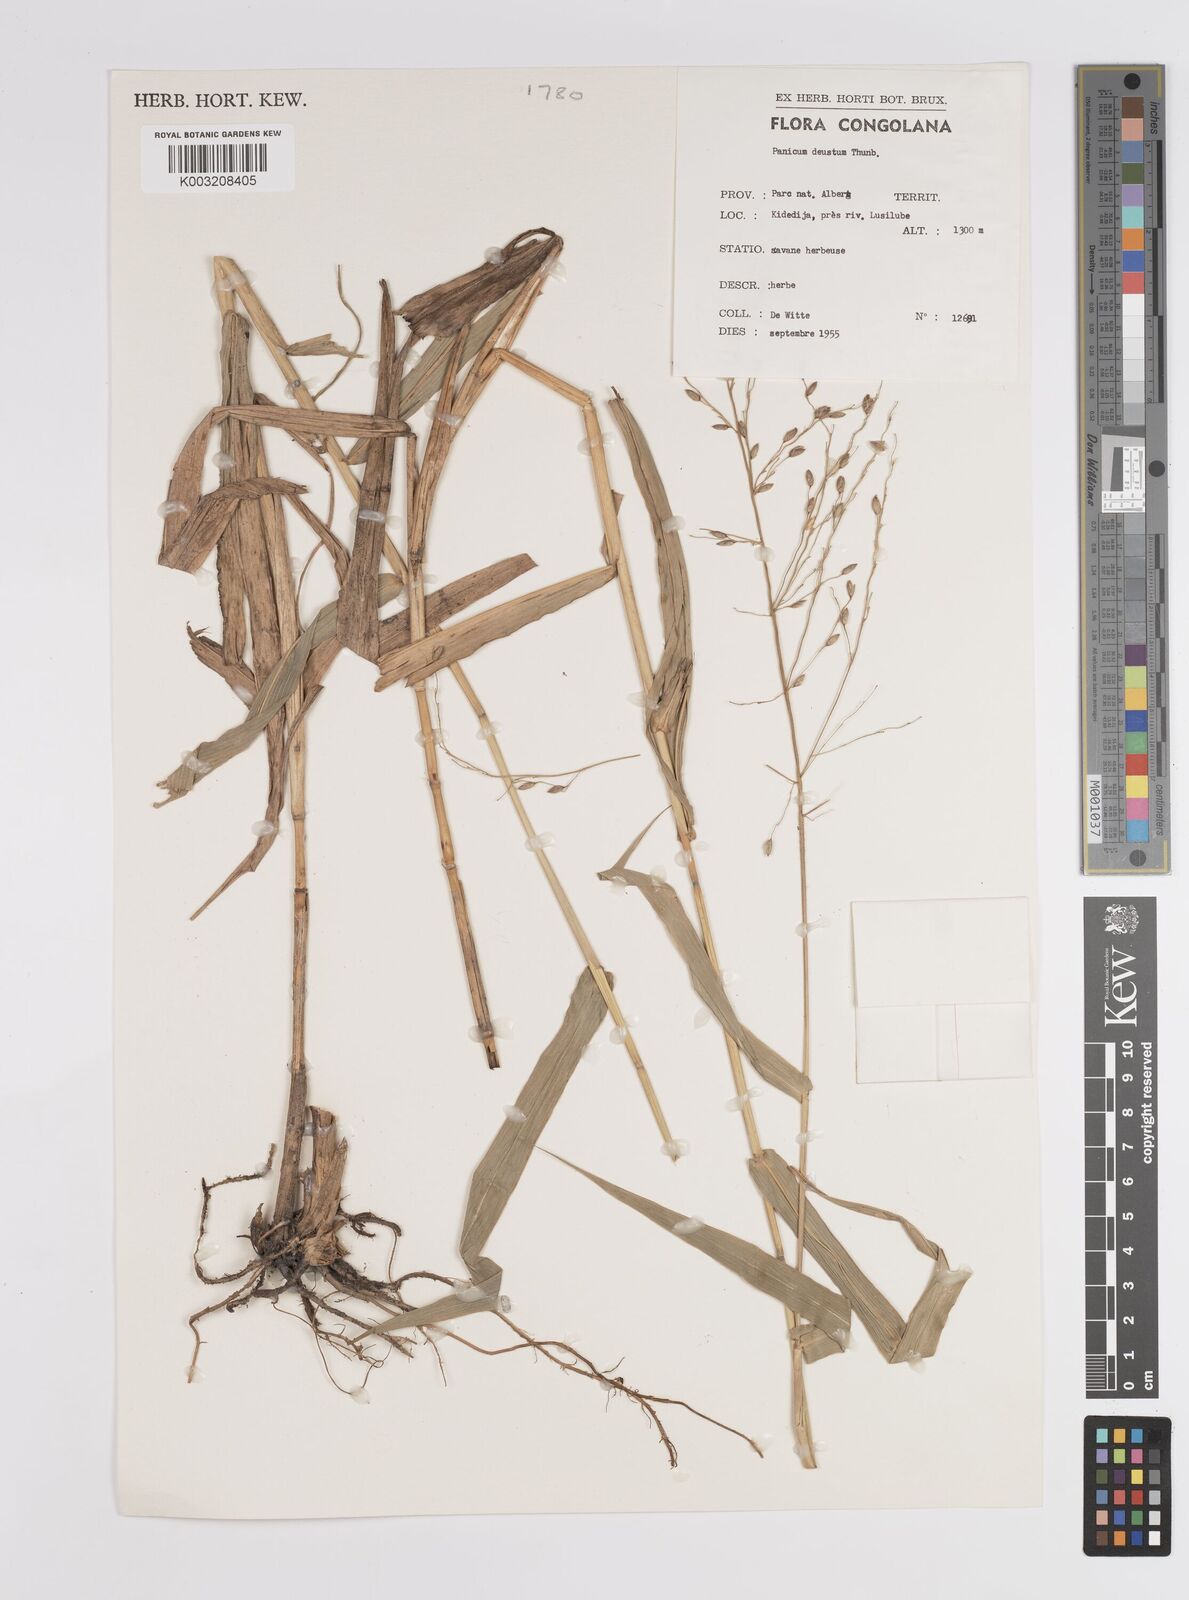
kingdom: Plantae
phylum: Tracheophyta
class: Liliopsida
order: Poales
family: Poaceae
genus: Panicum
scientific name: Panicum deustum
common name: Reed panicum
